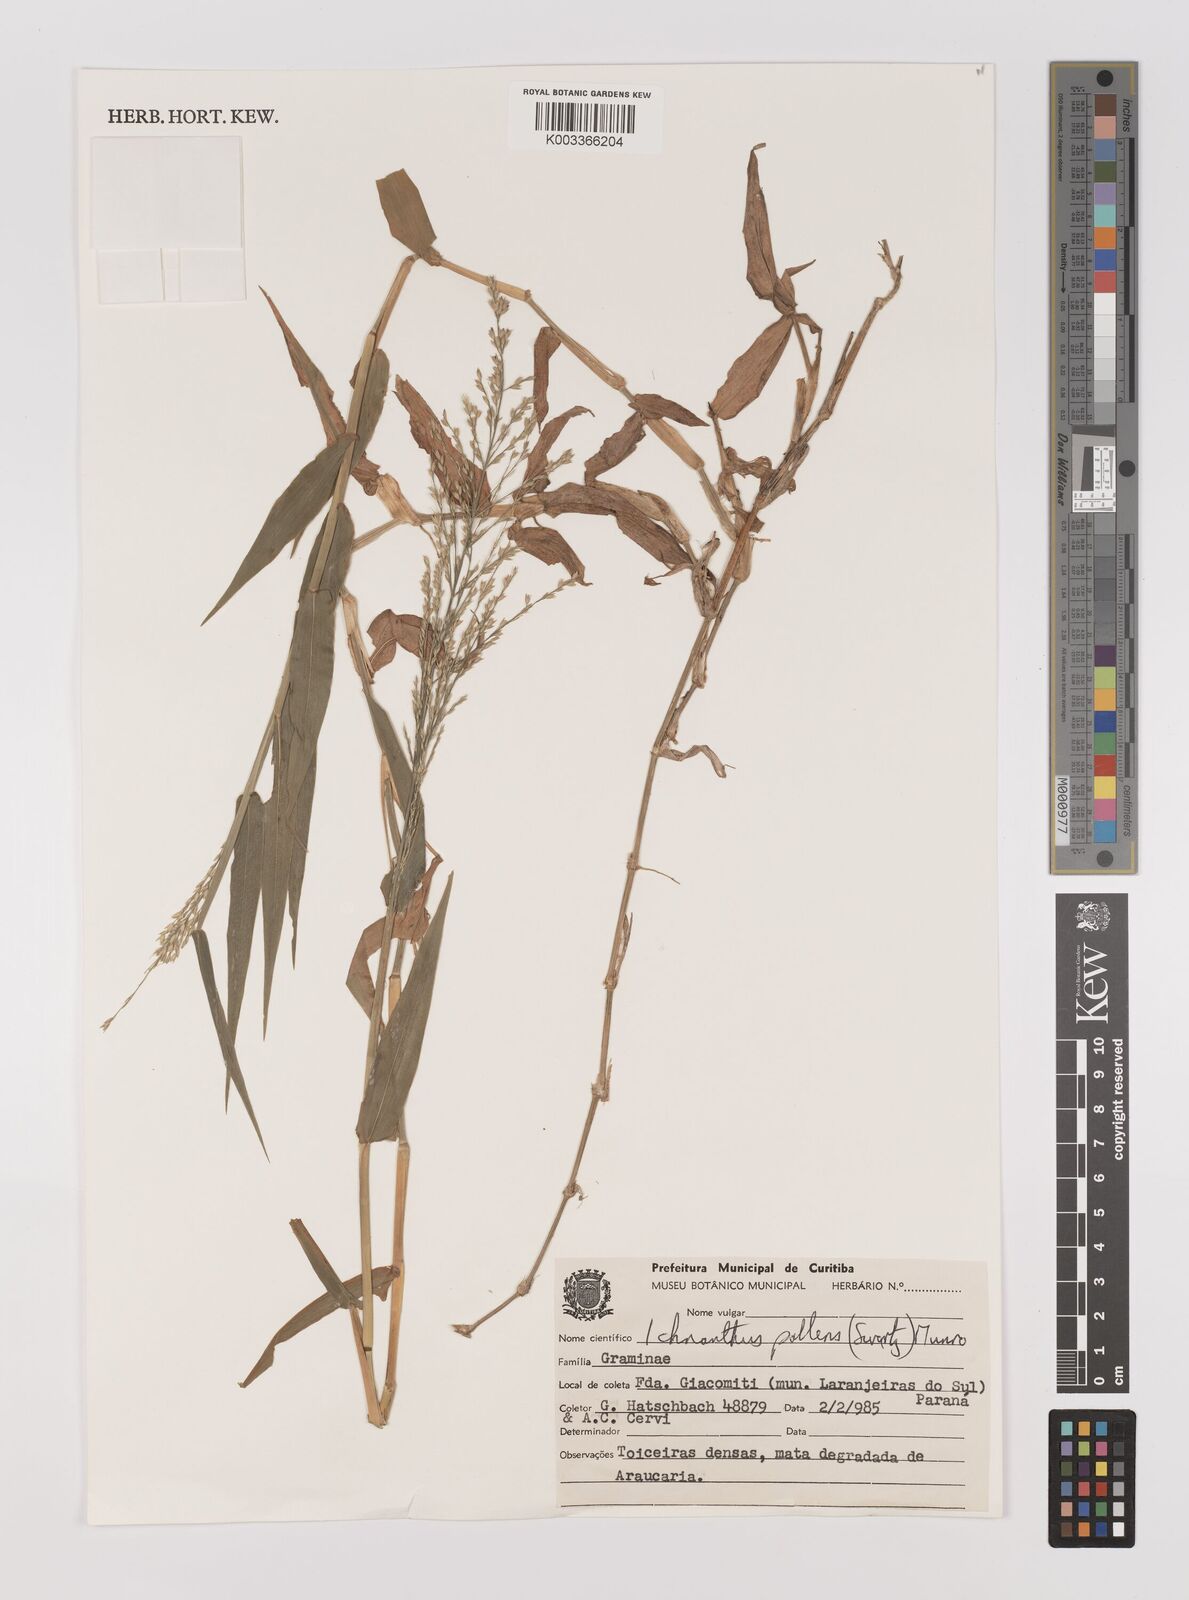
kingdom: Plantae
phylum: Tracheophyta
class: Liliopsida
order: Poales
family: Poaceae
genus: Ichnanthus
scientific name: Ichnanthus pallens
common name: Water grass
